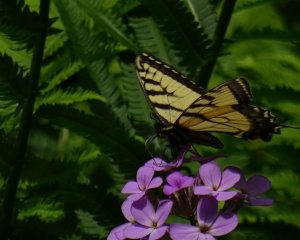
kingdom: Animalia
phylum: Arthropoda
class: Insecta
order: Lepidoptera
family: Papilionidae
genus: Pterourus
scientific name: Pterourus glaucus
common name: Eastern Tiger Swallowtail
